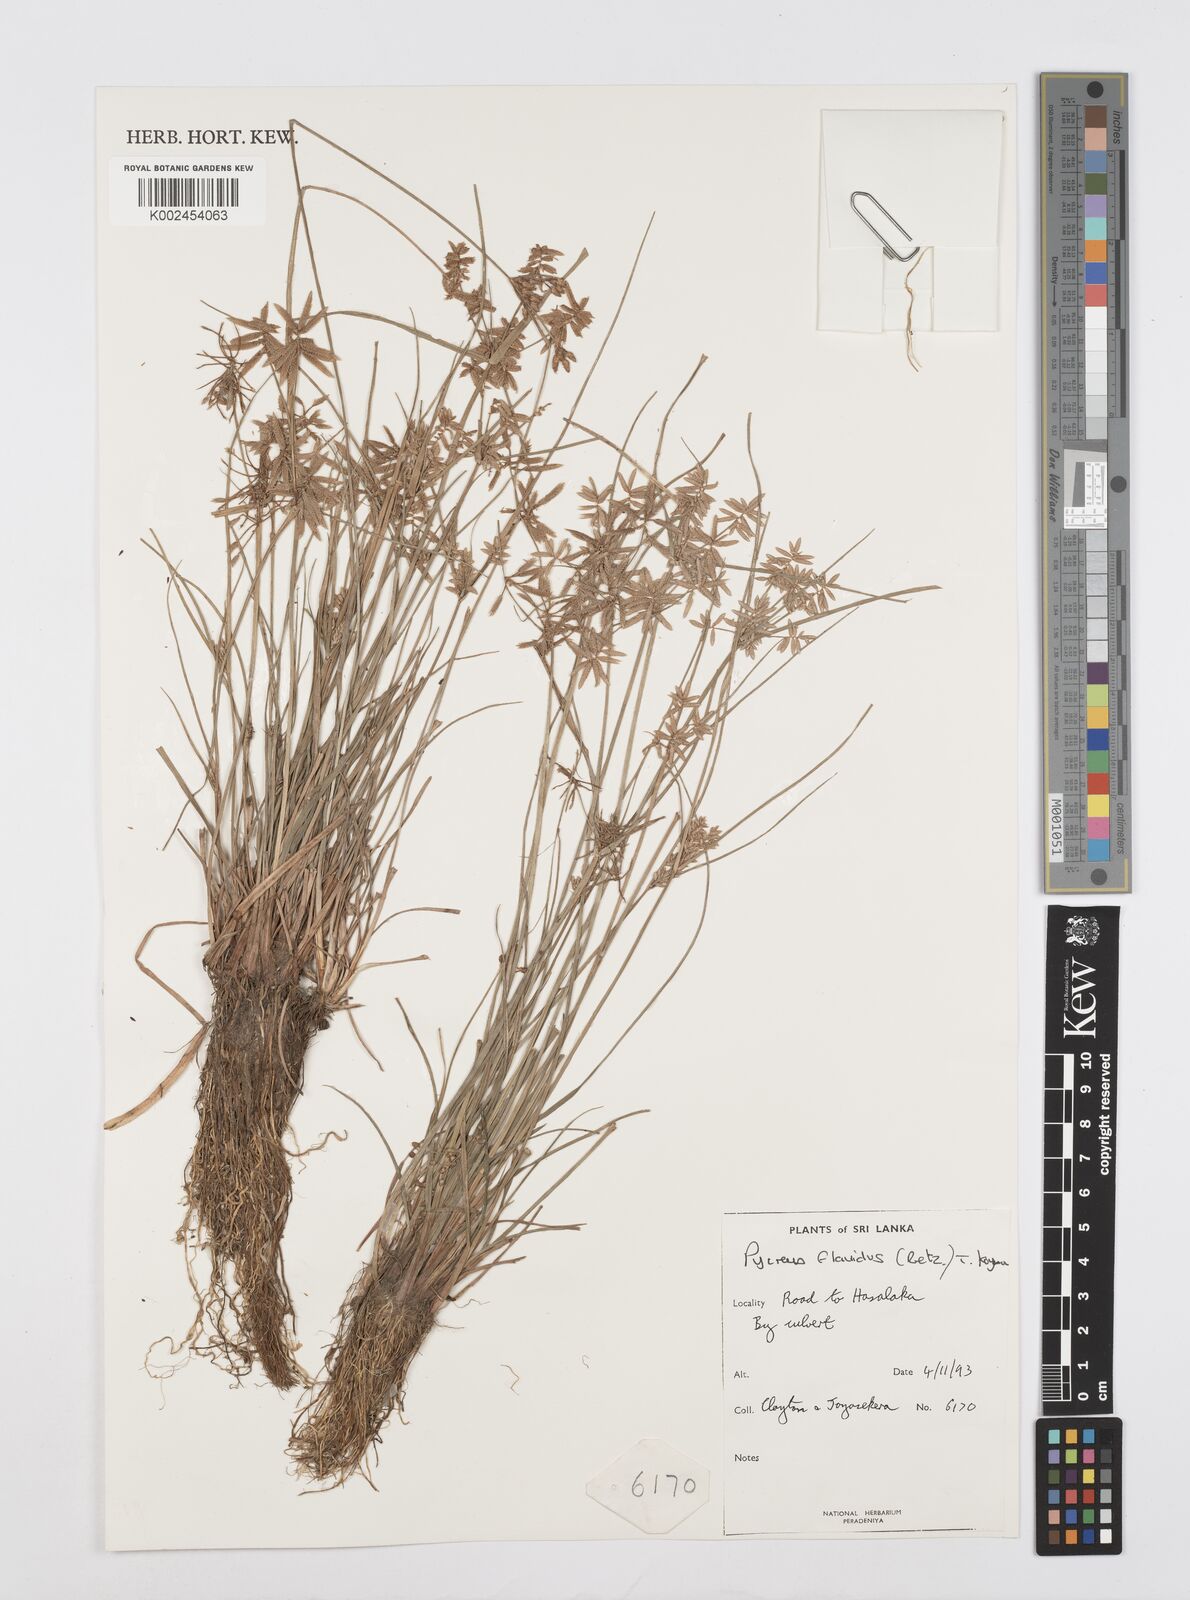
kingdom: Plantae
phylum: Tracheophyta
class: Liliopsida
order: Poales
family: Cyperaceae
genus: Cyperus
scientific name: Cyperus flavidus
